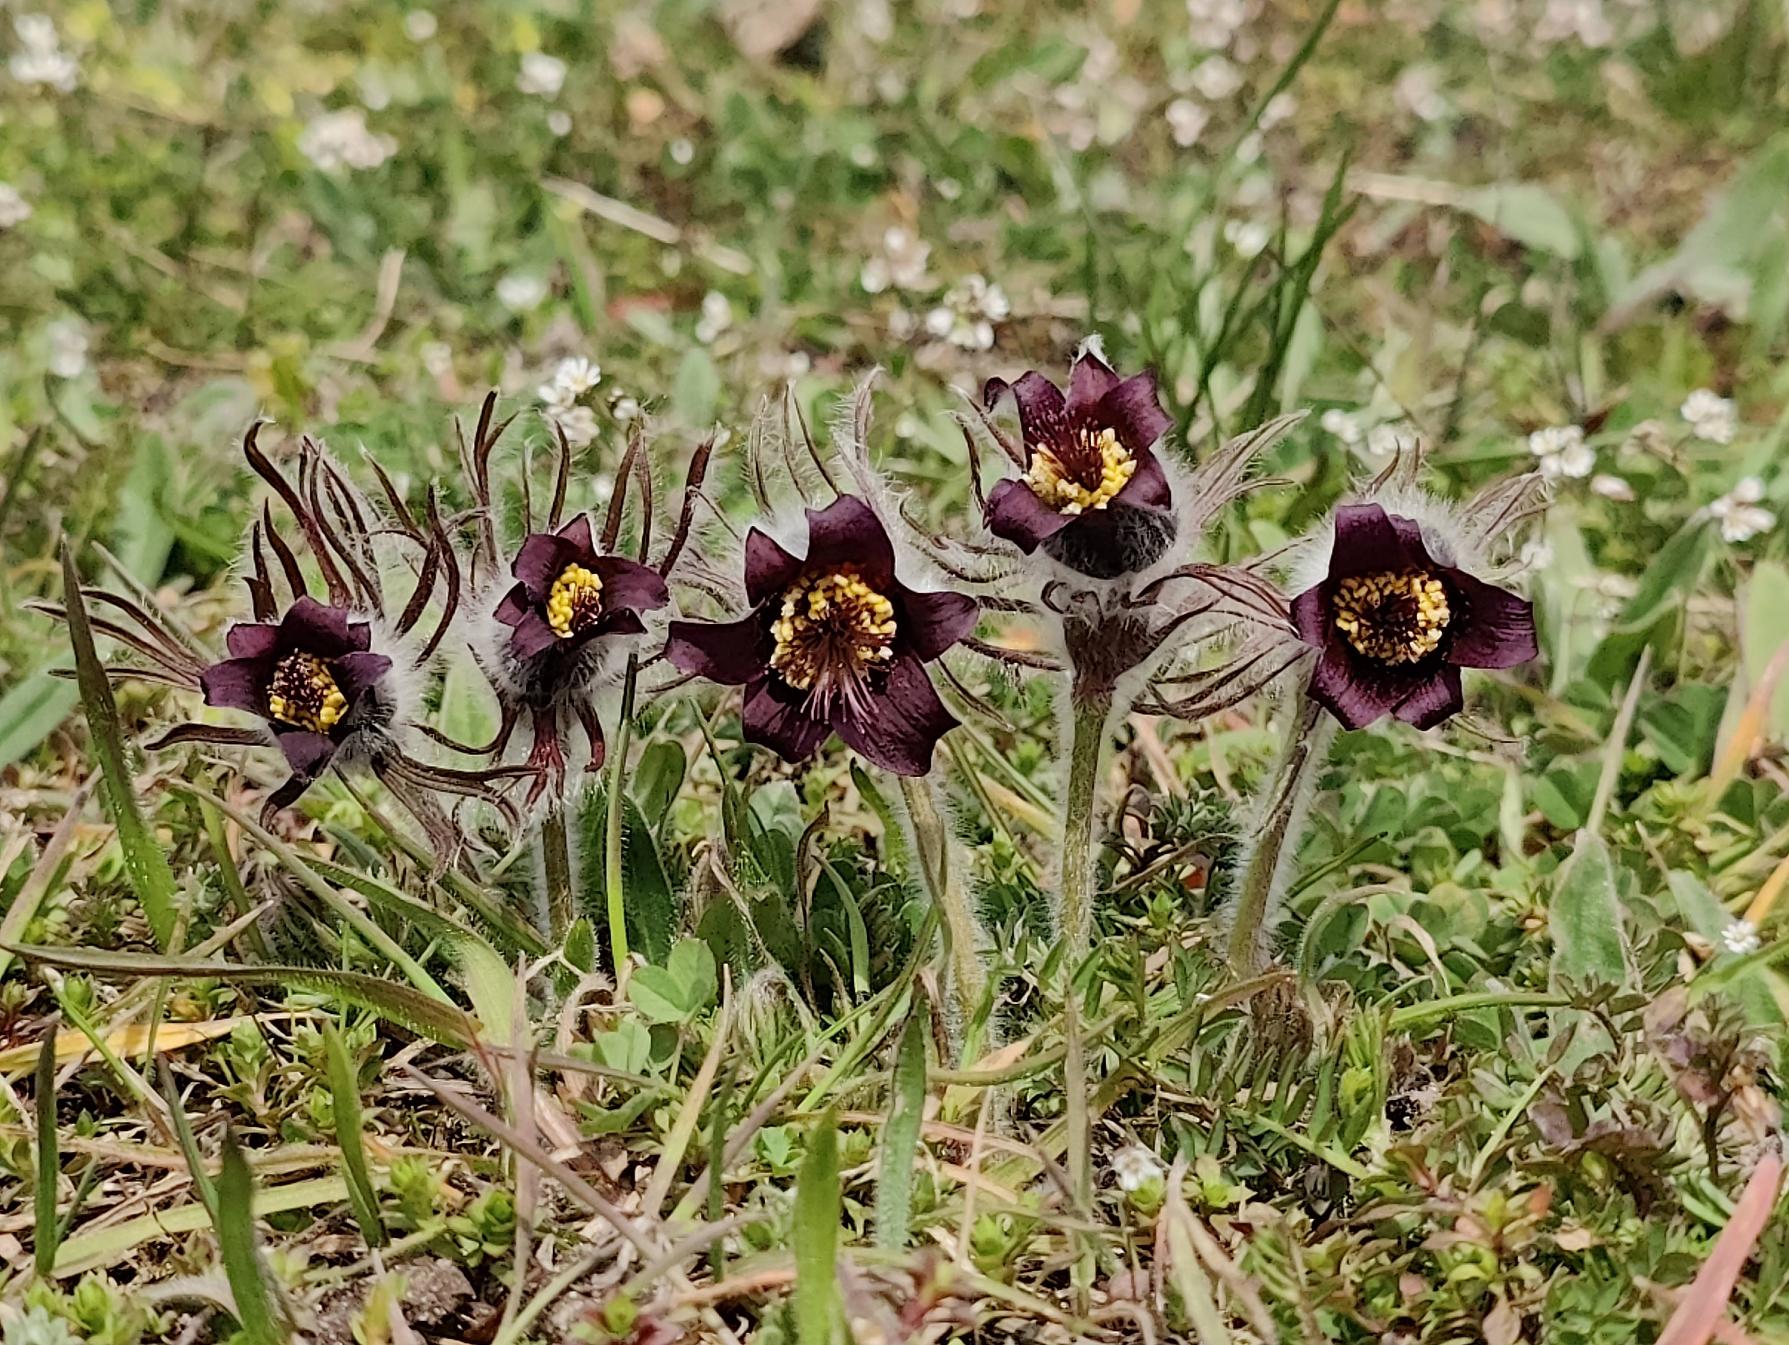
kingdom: Plantae
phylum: Tracheophyta
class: Magnoliopsida
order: Ranunculales
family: Ranunculaceae
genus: Pulsatilla
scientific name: Pulsatilla pratensis
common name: Nikkende kobjælde
